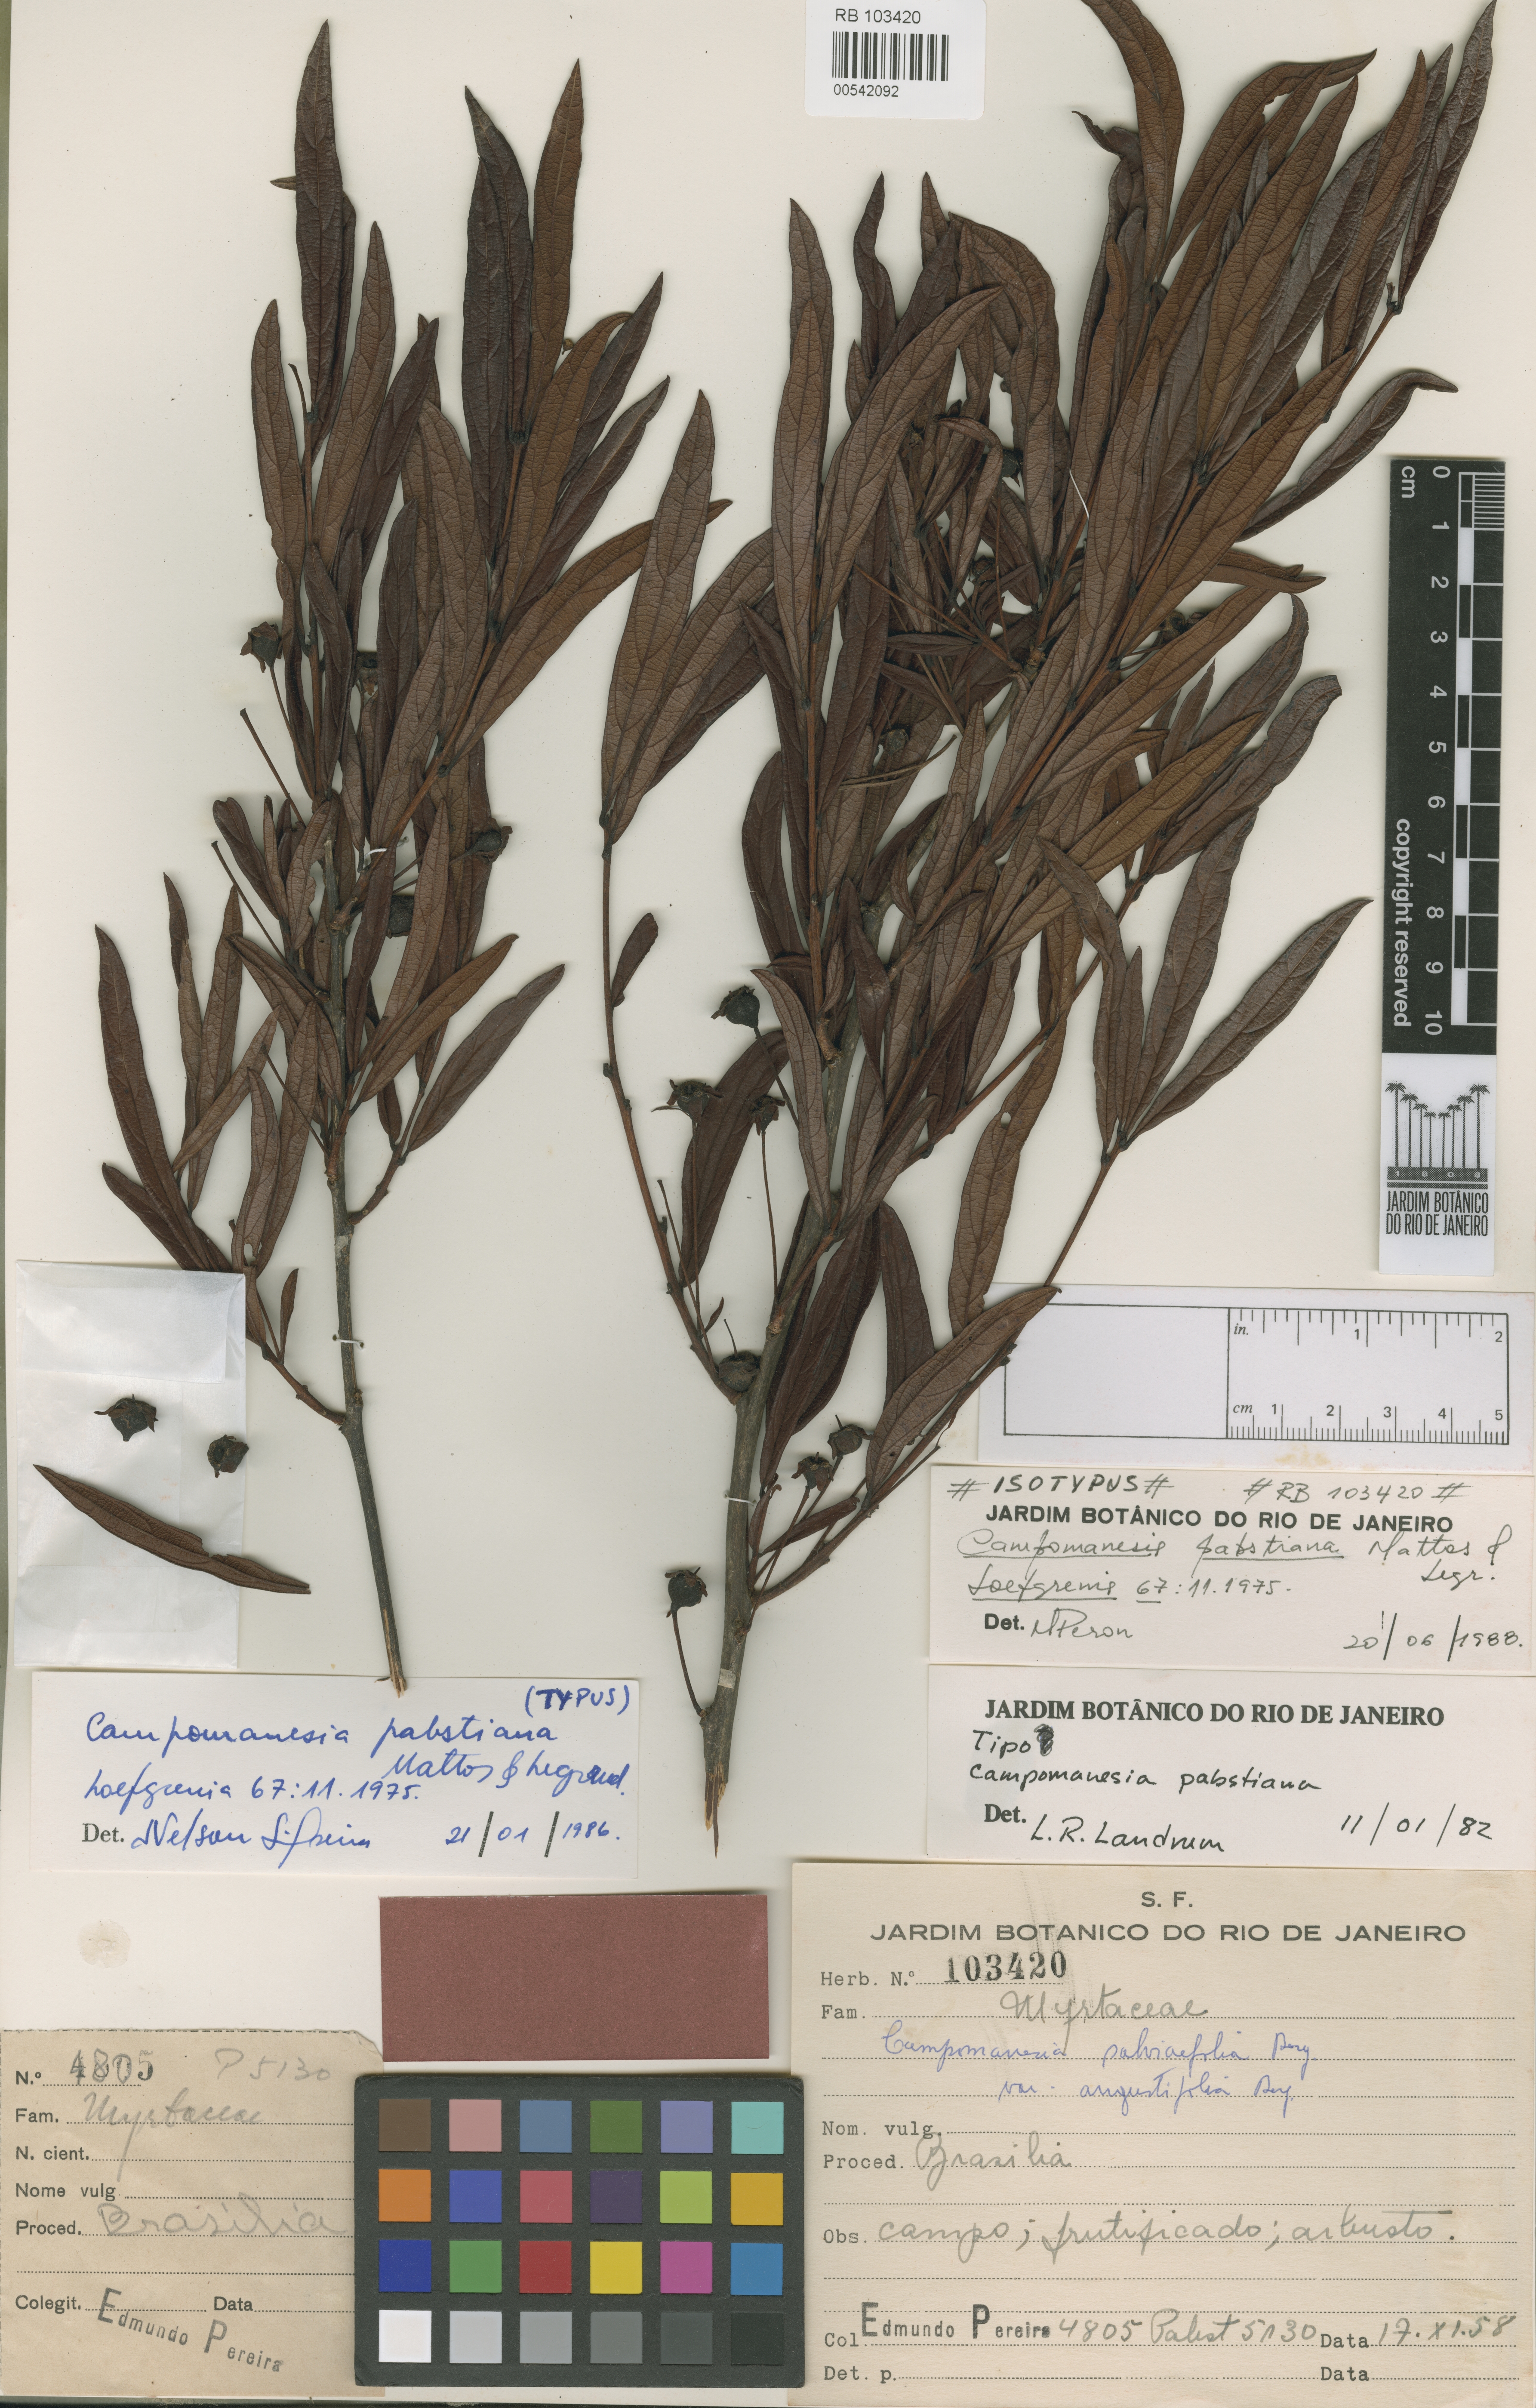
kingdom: Plantae
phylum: Tracheophyta
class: Magnoliopsida
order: Myrtales
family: Myrtaceae
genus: Campomanesia
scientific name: Campomanesia pabstiana
